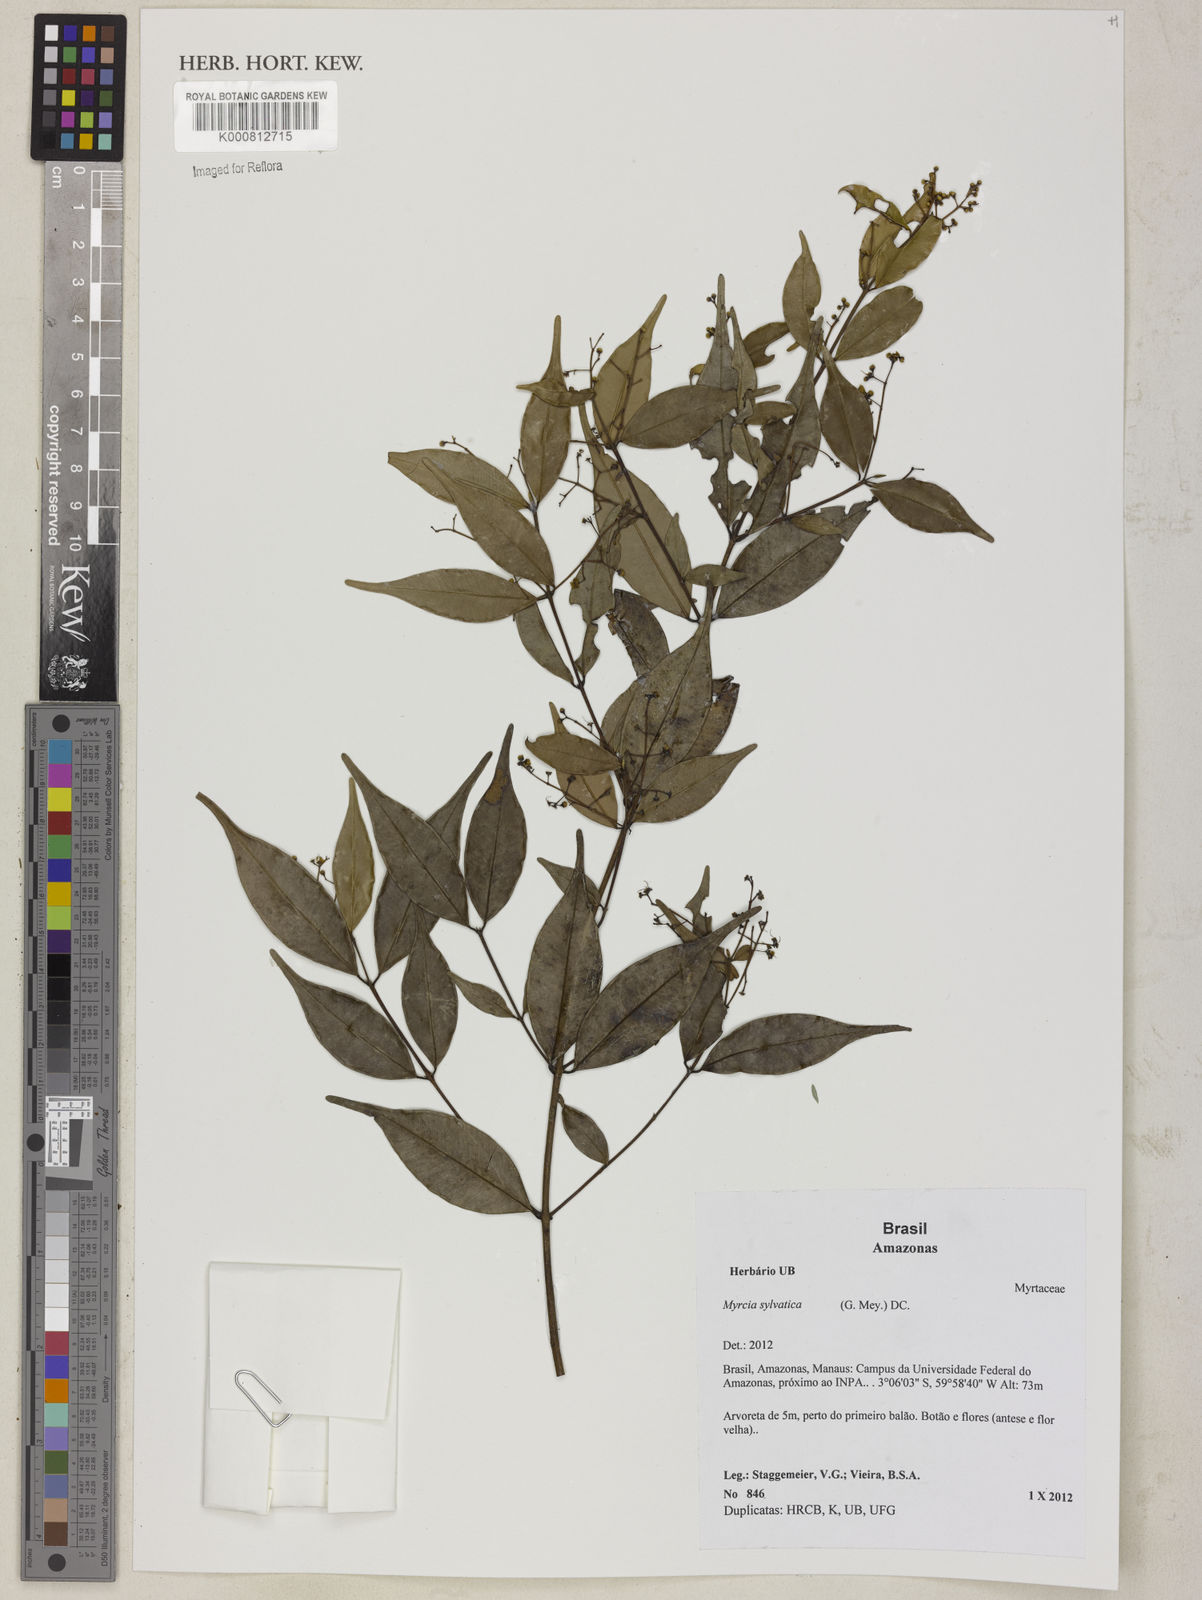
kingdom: Plantae
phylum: Tracheophyta
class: Magnoliopsida
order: Myrtales
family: Myrtaceae
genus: Myrcia
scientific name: Myrcia sylvatica
